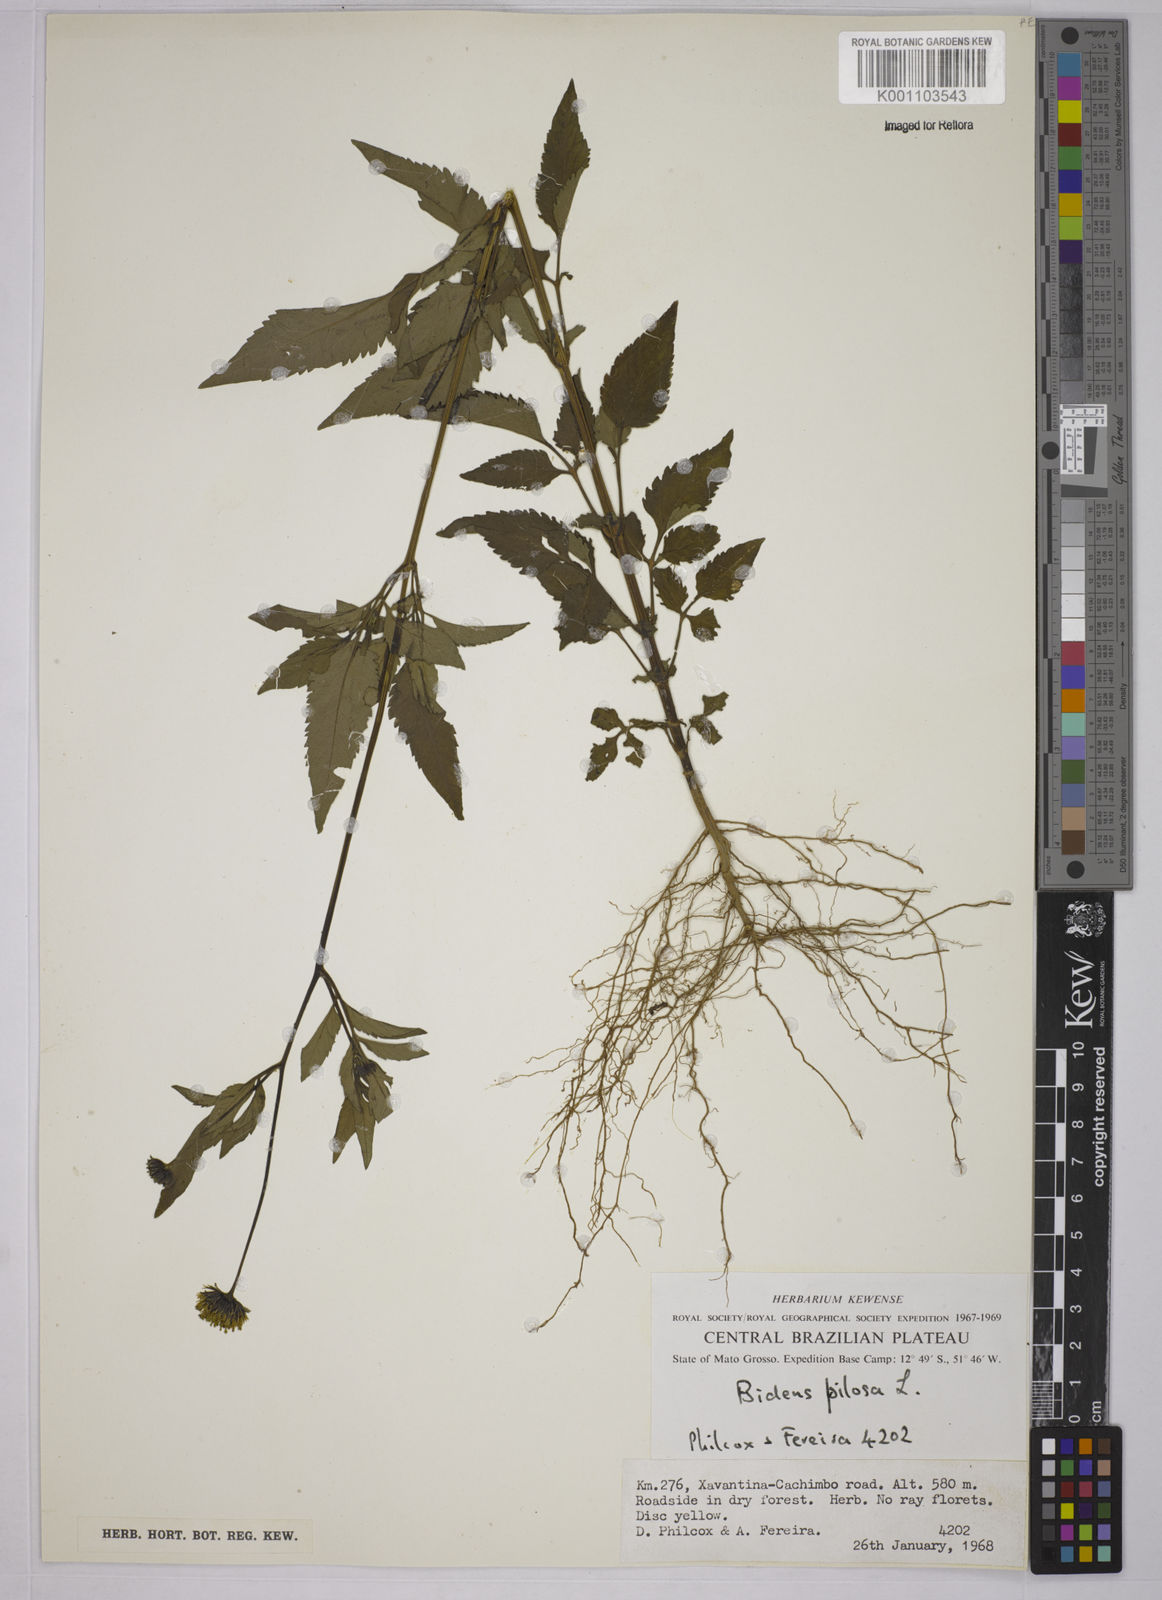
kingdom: Plantae
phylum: Tracheophyta
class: Magnoliopsida
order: Asterales
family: Asteraceae
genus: Bidens
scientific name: Bidens pilosa
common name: Black-jack
